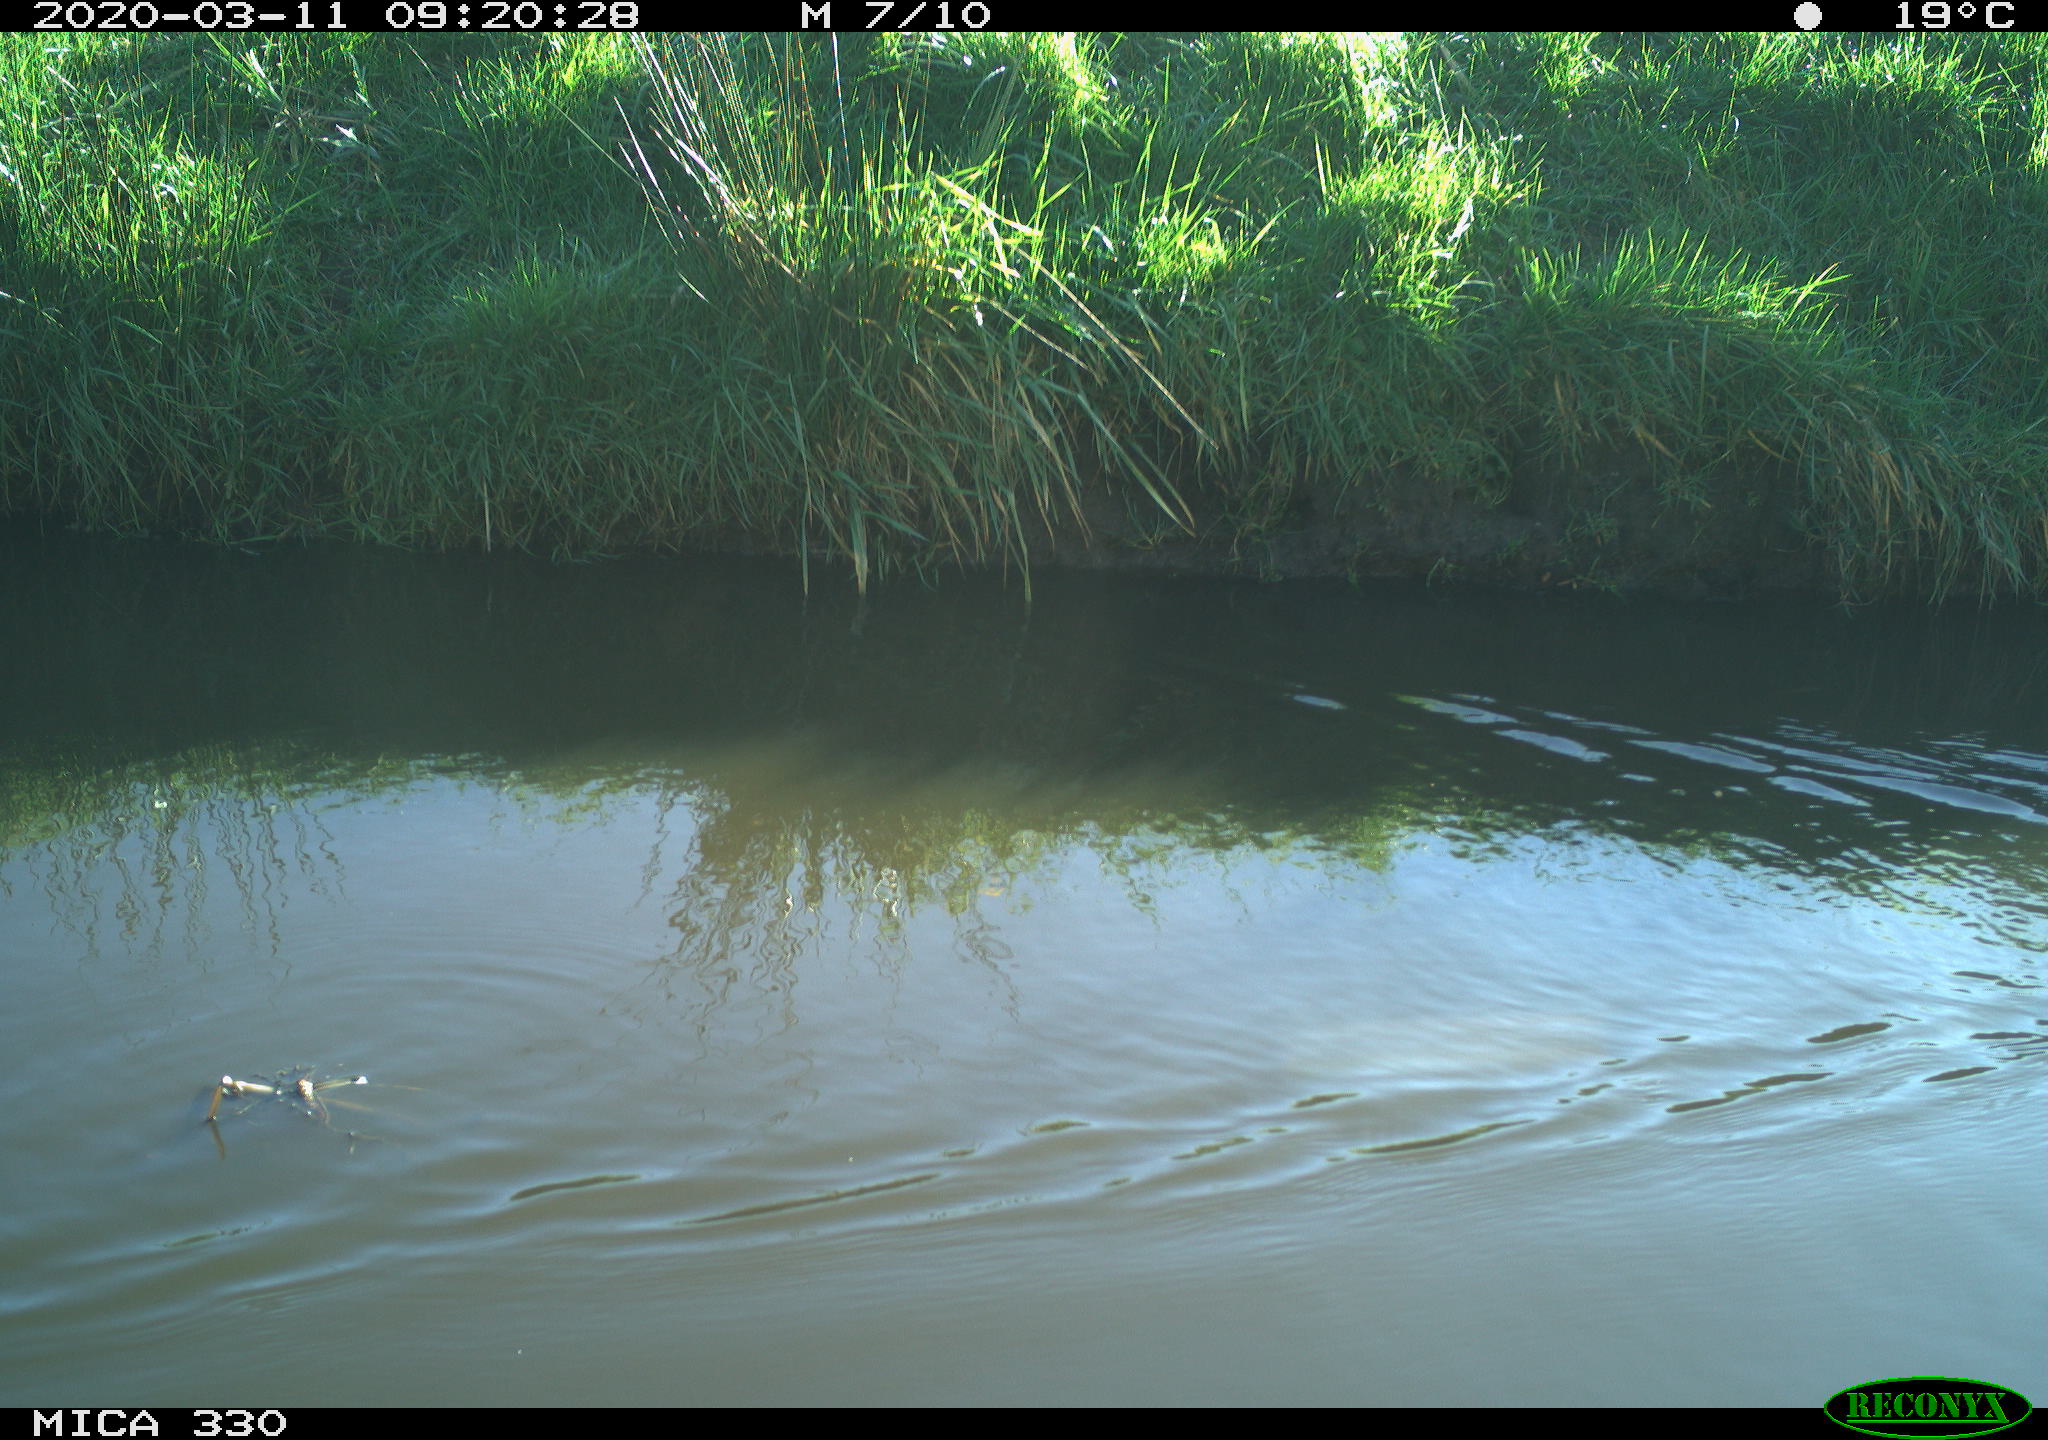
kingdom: Animalia
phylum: Chordata
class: Aves
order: Anseriformes
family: Anatidae
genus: Anas
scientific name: Anas platyrhynchos
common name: Mallard
